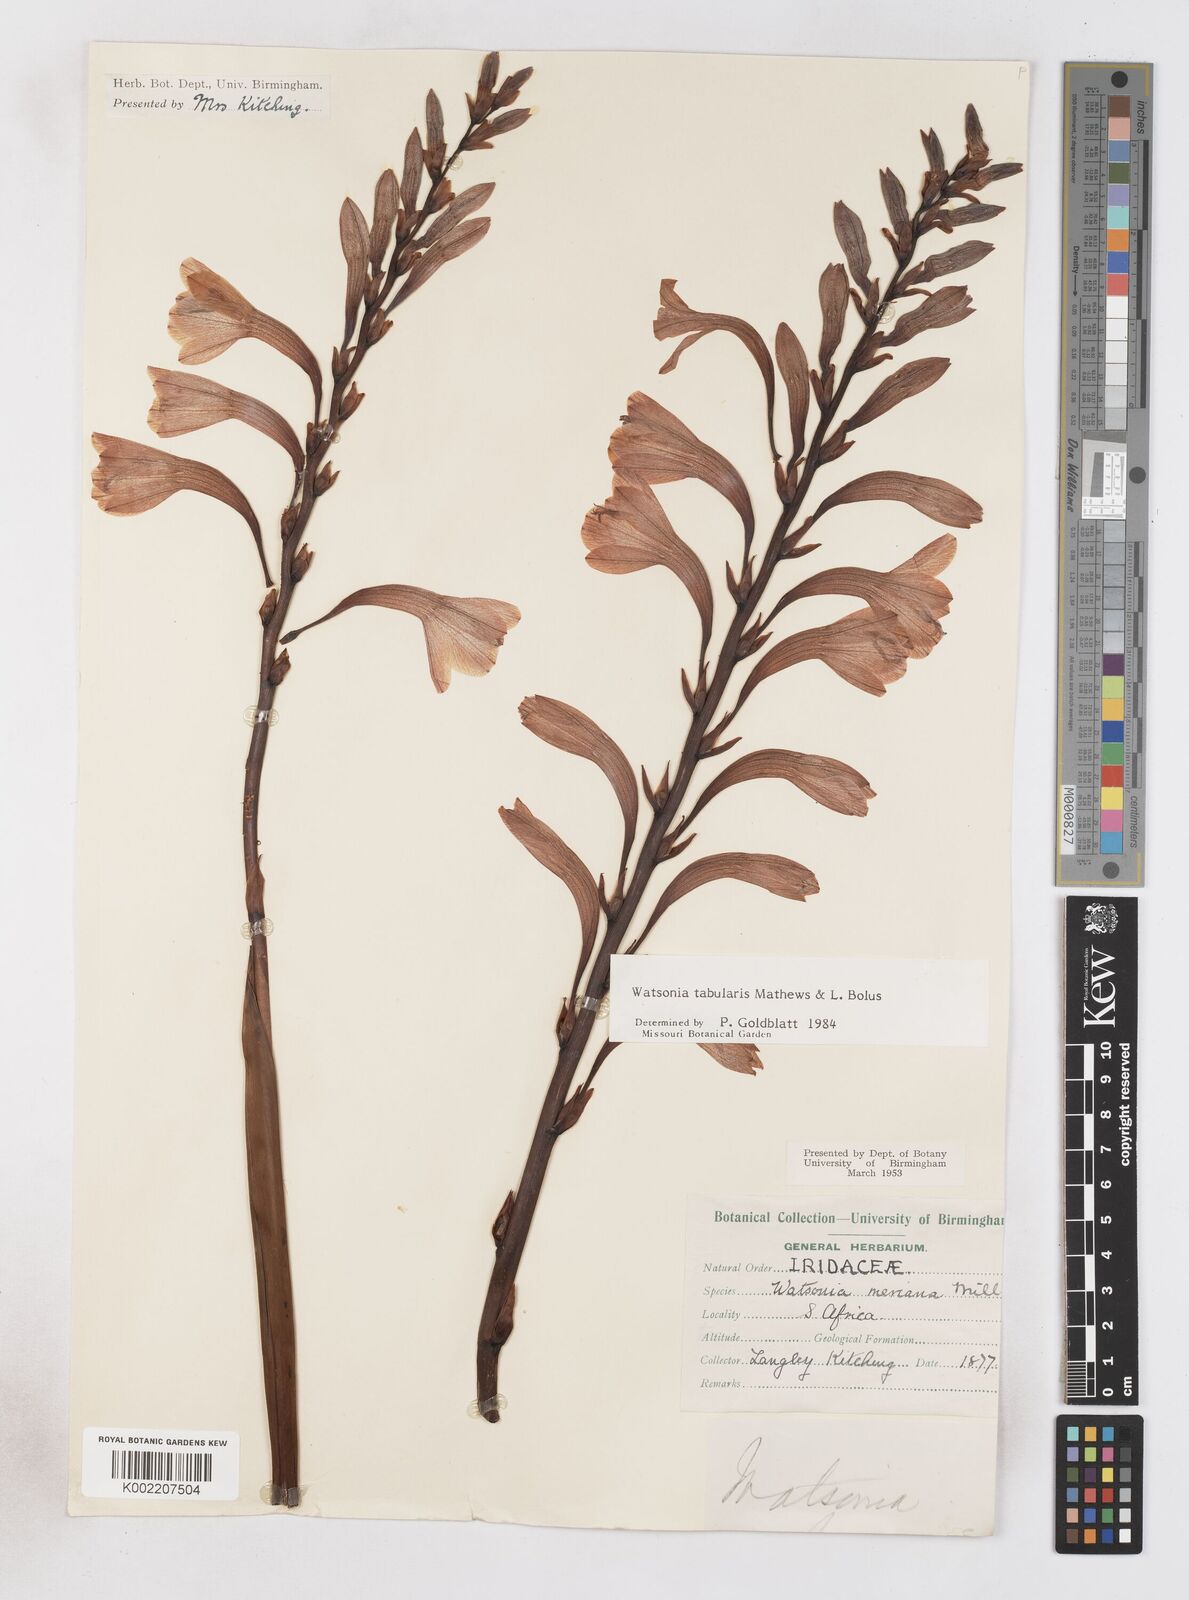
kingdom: Plantae
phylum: Tracheophyta
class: Liliopsida
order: Asparagales
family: Iridaceae
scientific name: Iridaceae
